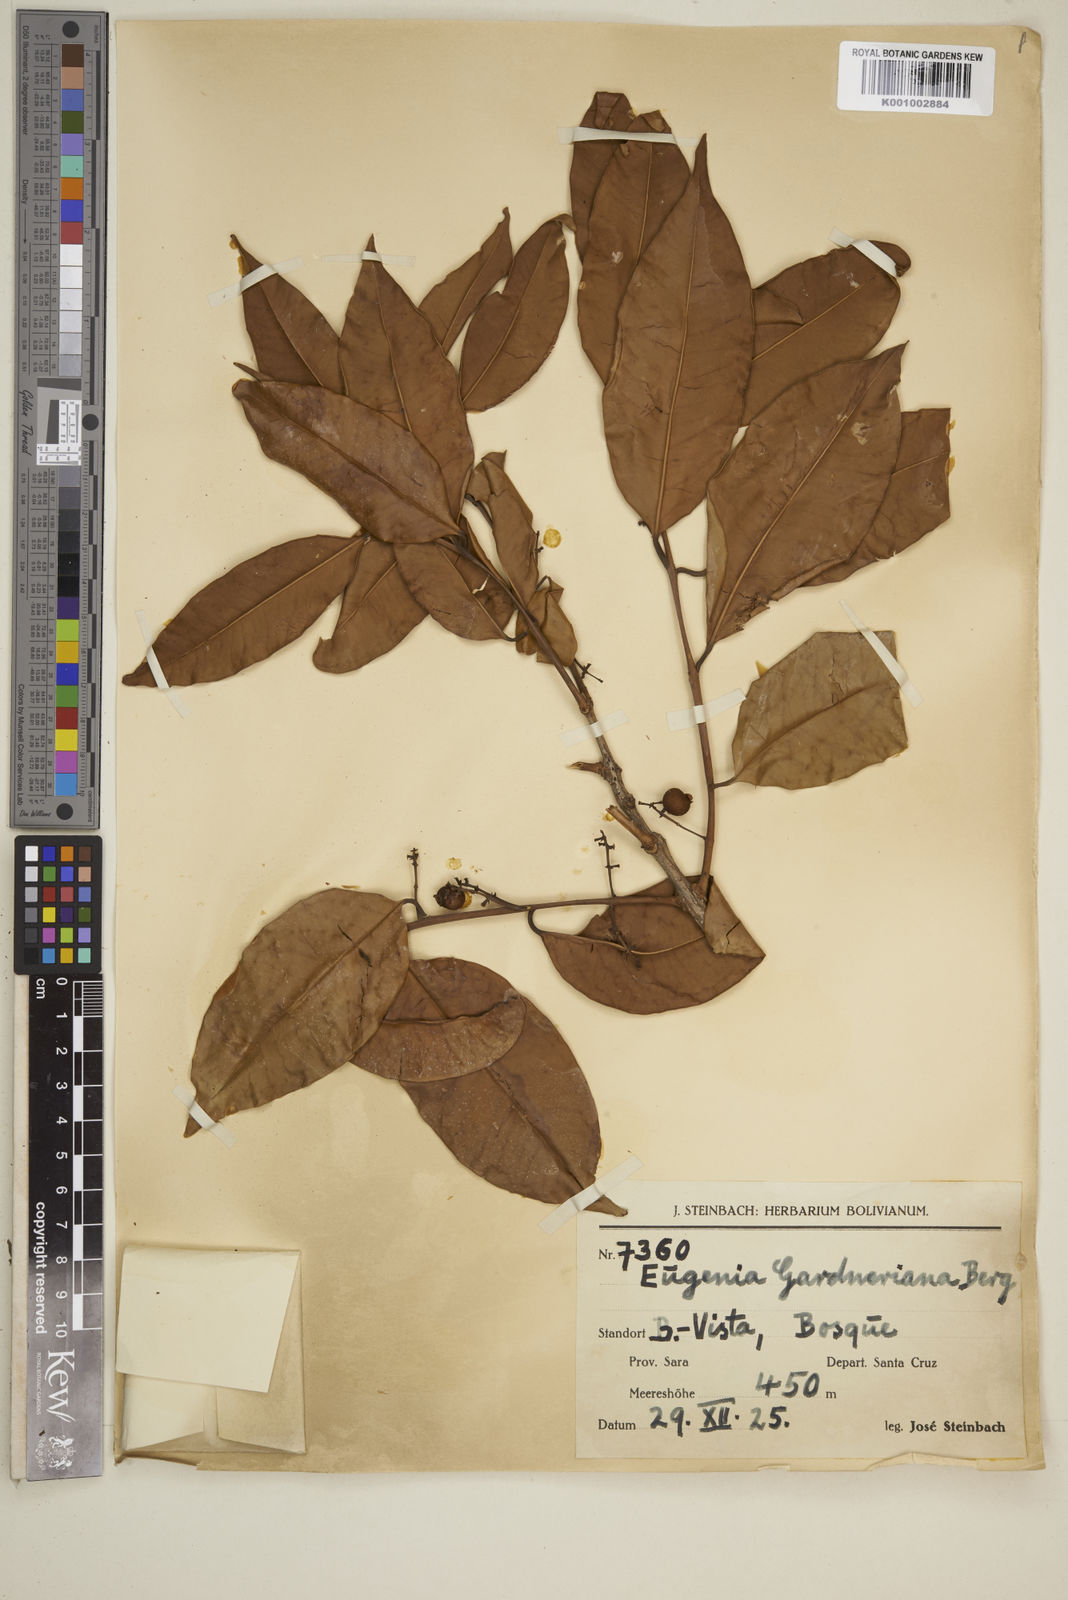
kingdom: Plantae
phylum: Tracheophyta
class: Magnoliopsida
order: Myrtales
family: Myrtaceae
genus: Eugenia
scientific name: Eugenia florida
